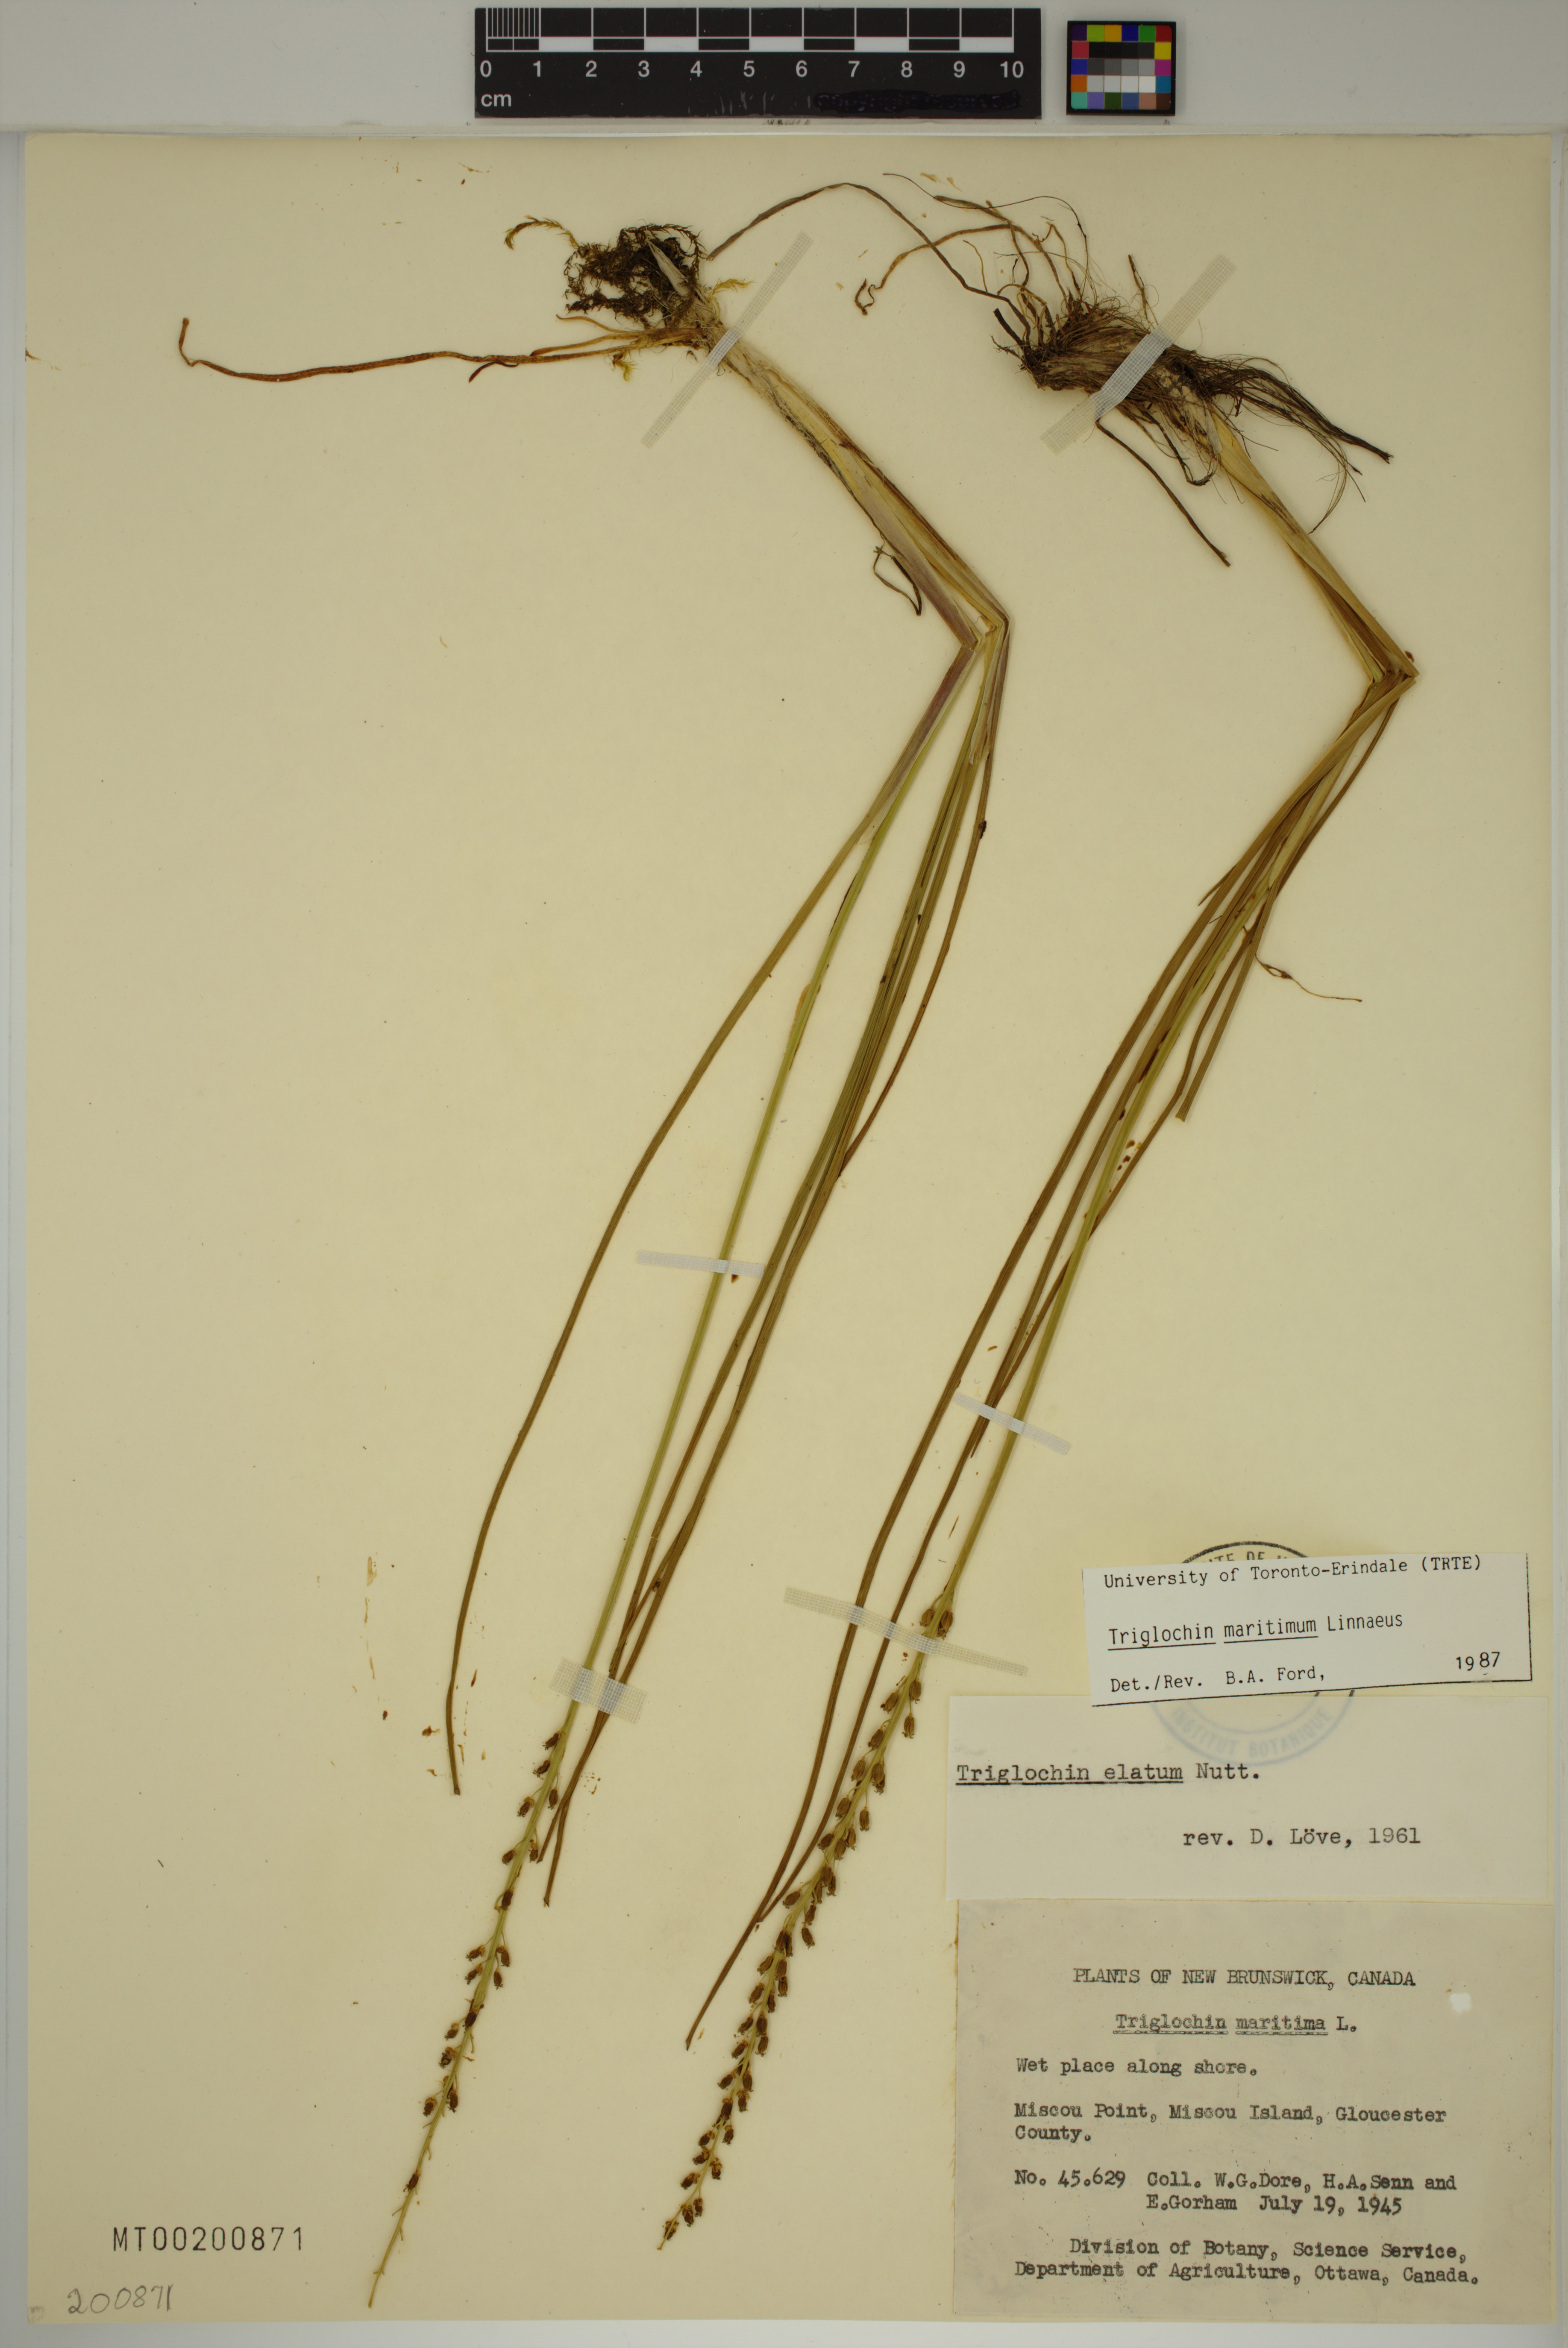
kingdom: Plantae
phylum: Tracheophyta
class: Liliopsida
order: Alismatales
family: Juncaginaceae
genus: Triglochin
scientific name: Triglochin maritima
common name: Sea arrowgrass
